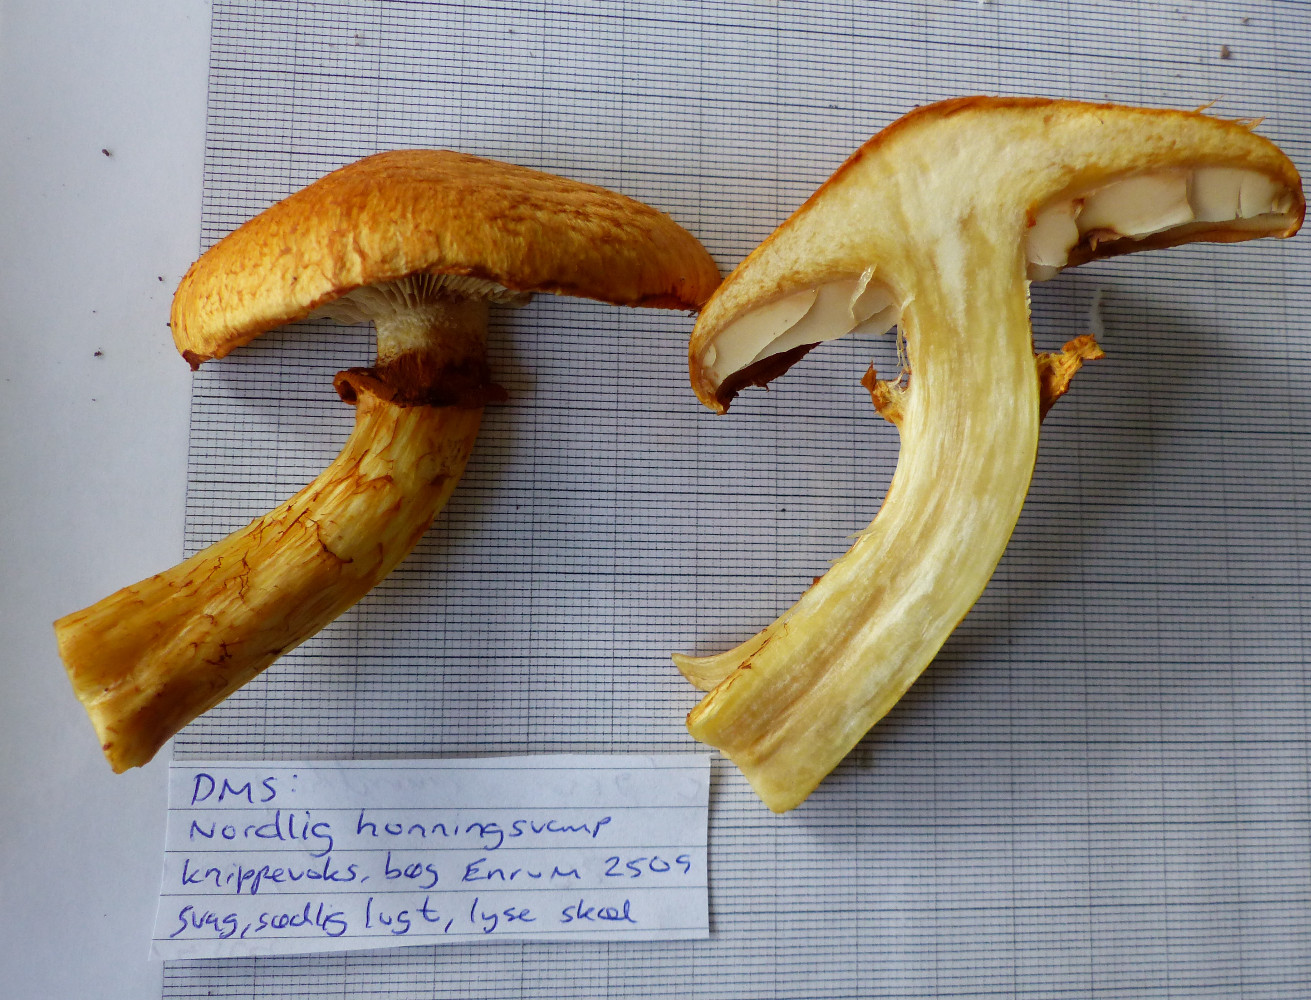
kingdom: Fungi
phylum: Basidiomycota
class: Agaricomycetes
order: Agaricales
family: Hymenogastraceae
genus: Gymnopilus
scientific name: Gymnopilus spectabilis
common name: fibret flammehat
